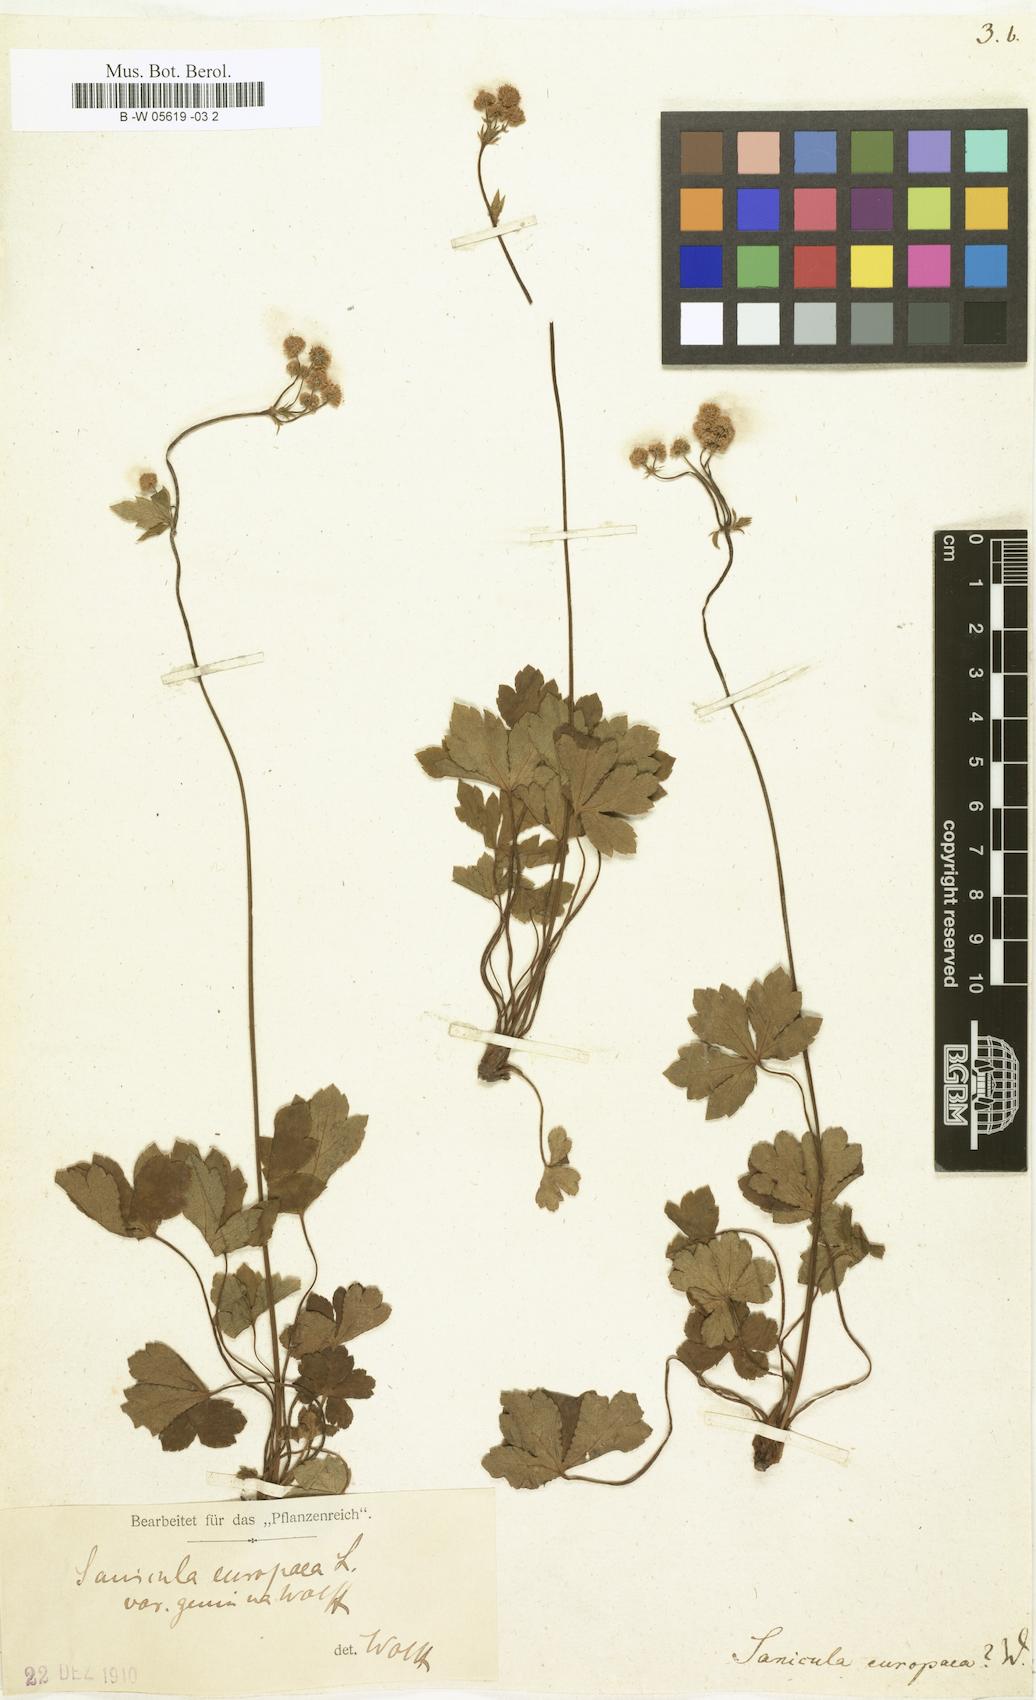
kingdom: Plantae
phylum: Tracheophyta
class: Magnoliopsida
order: Apiales
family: Apiaceae
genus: Sanicula
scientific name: Sanicula europaea
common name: Sanicle
